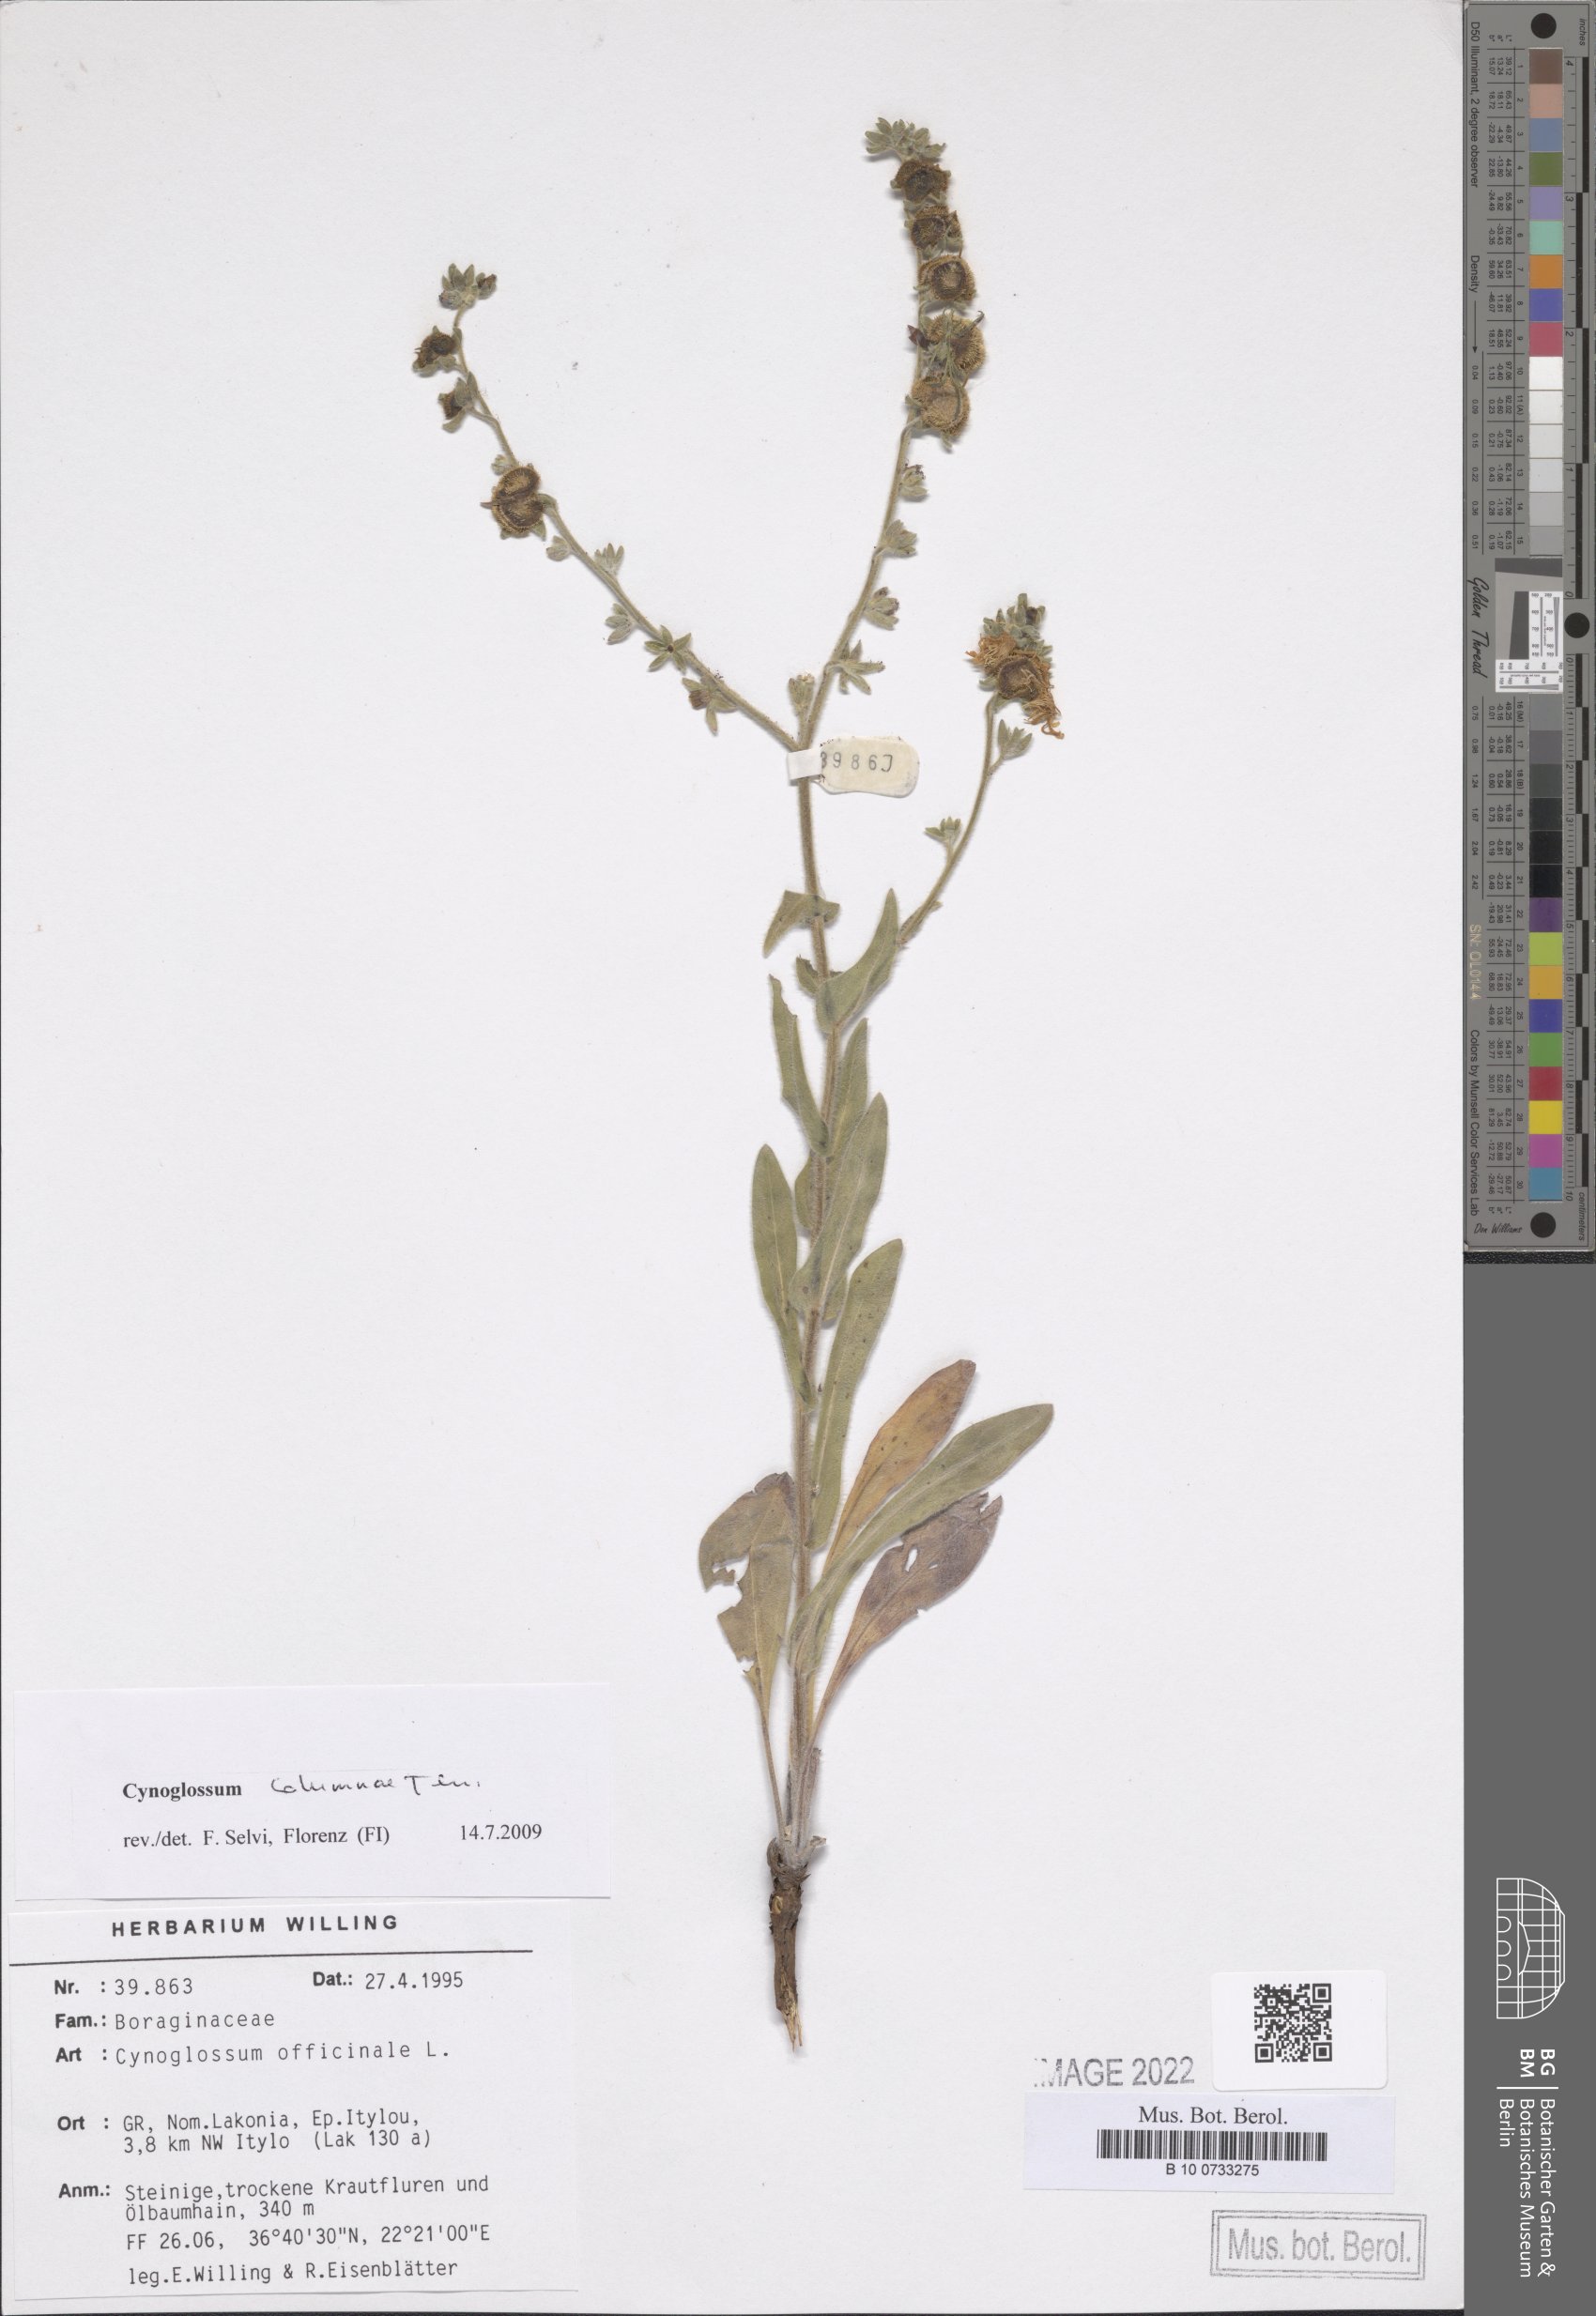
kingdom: Plantae
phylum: Tracheophyta
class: Magnoliopsida
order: Boraginales
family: Boraginaceae
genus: Rindera
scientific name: Rindera columnae
